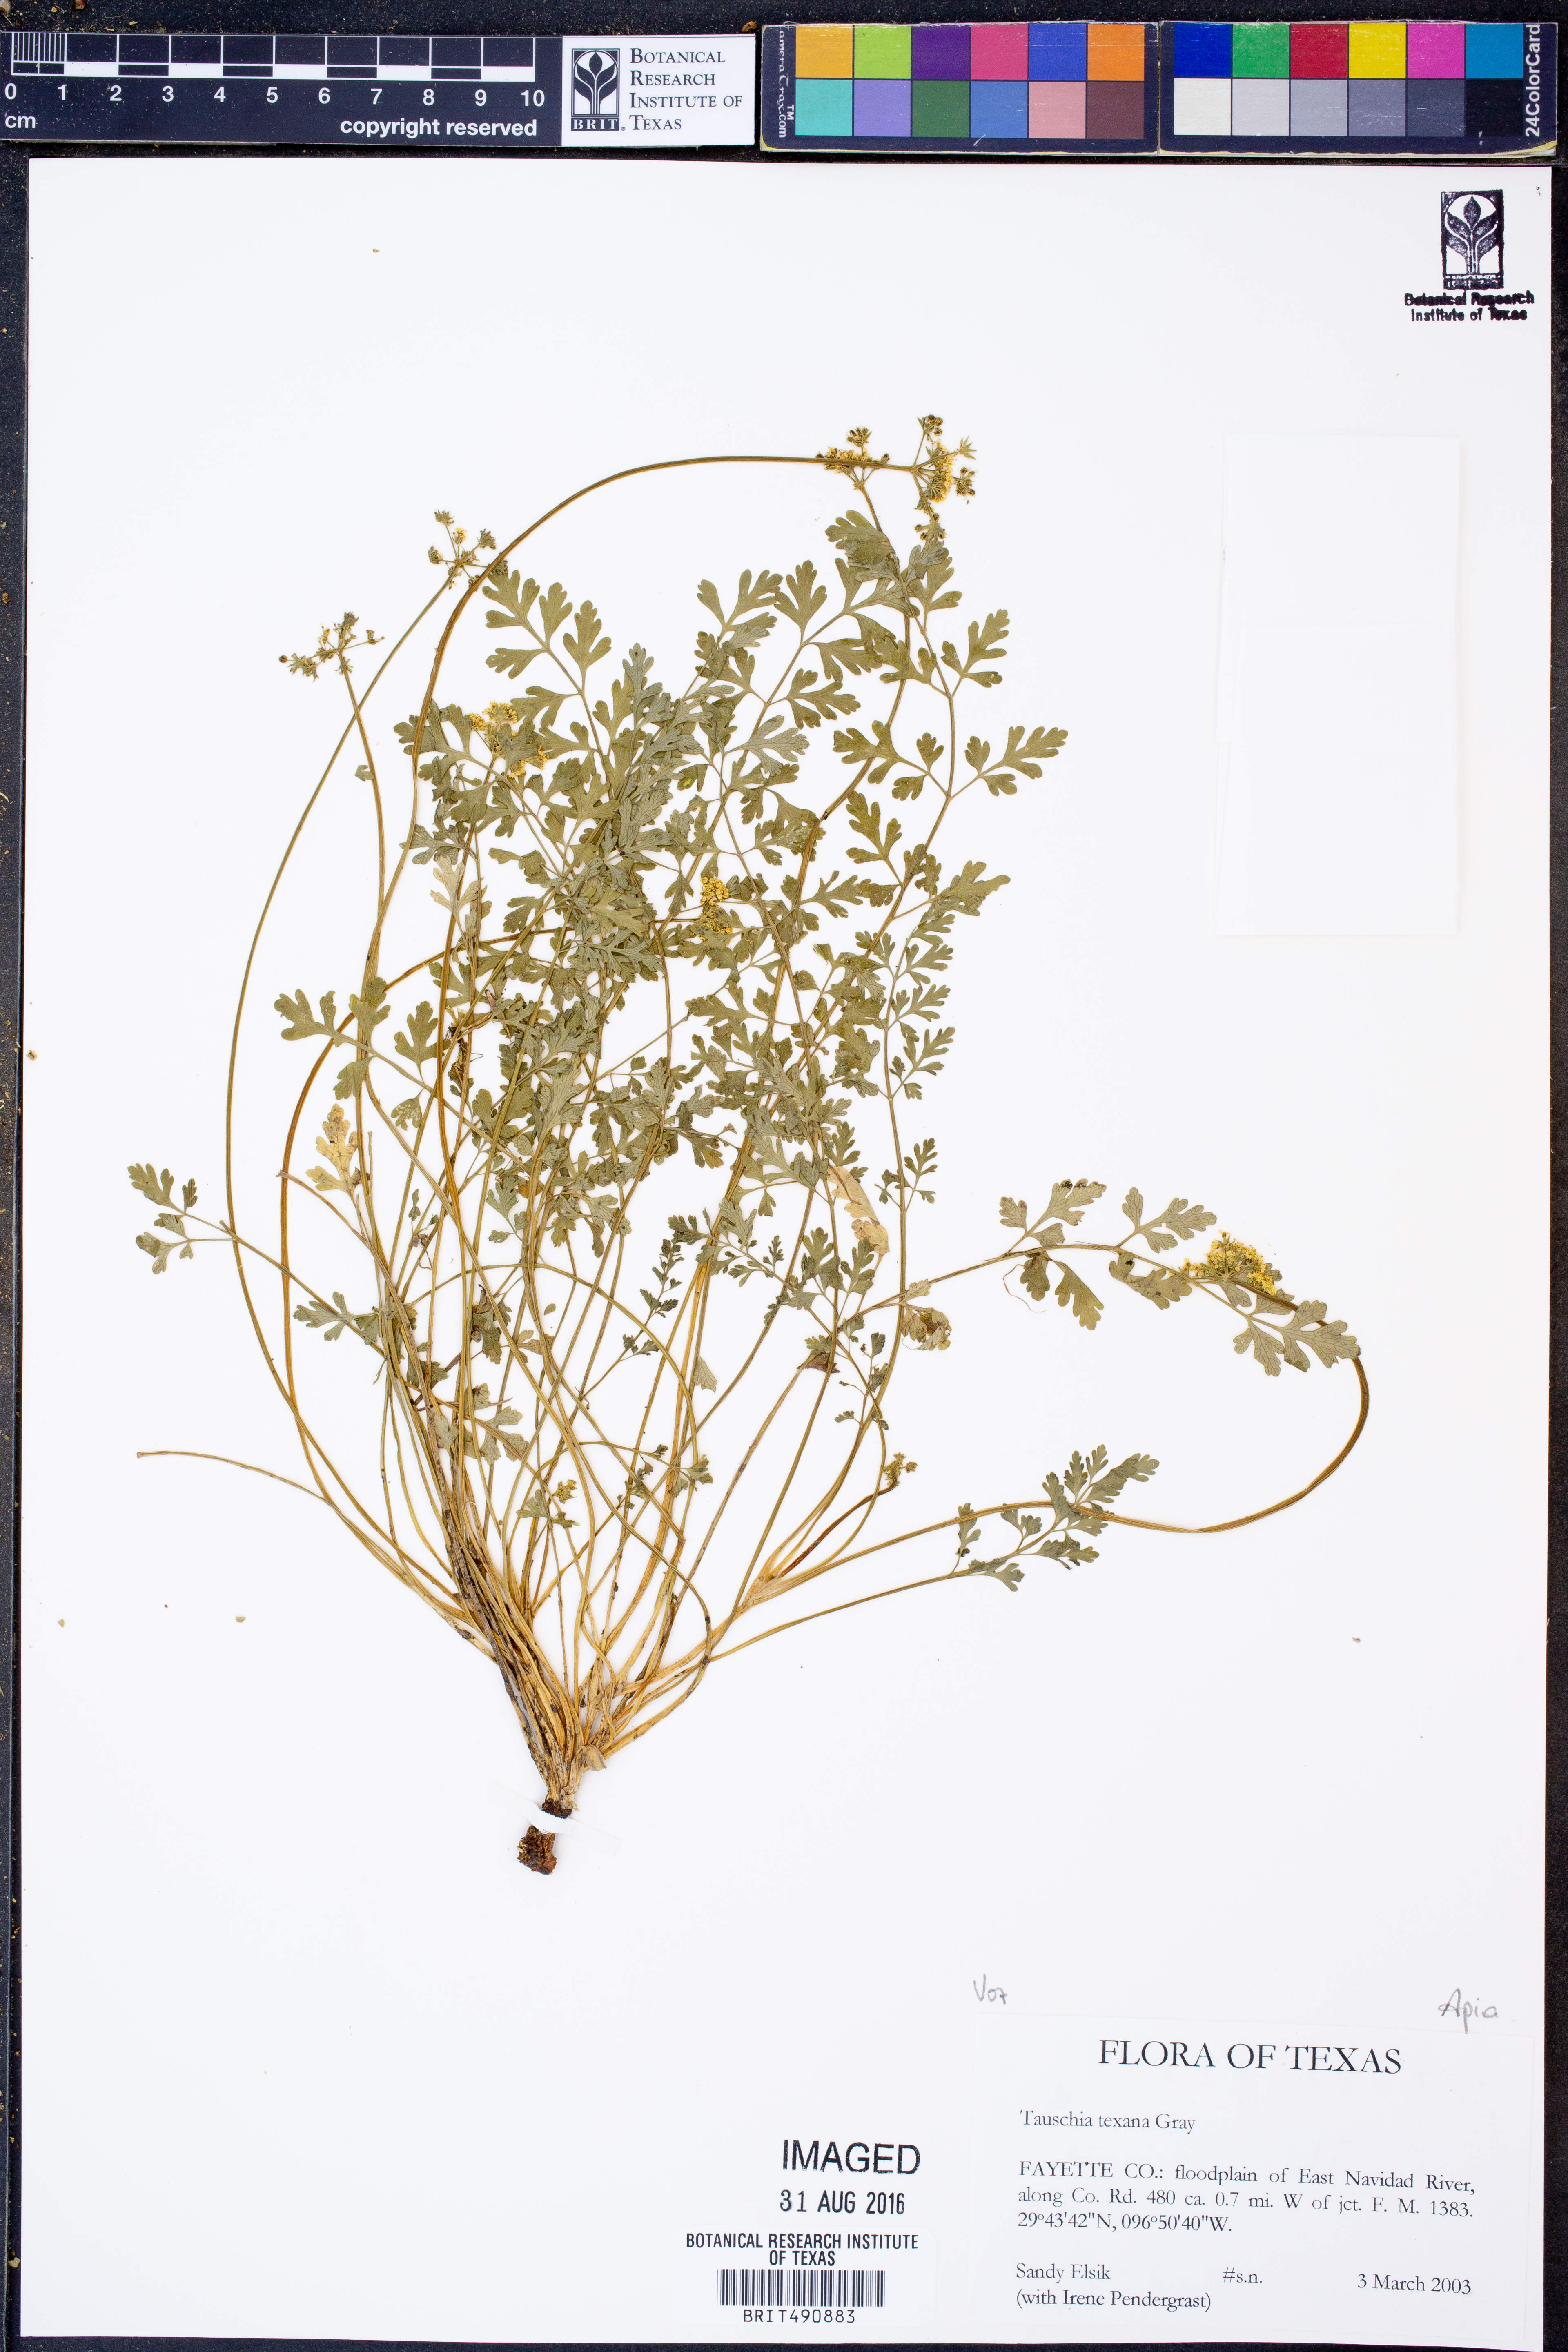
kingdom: Plantae
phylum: Tracheophyta
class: Magnoliopsida
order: Apiales
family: Apiaceae
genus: Tauschia
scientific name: Tauschia texana
